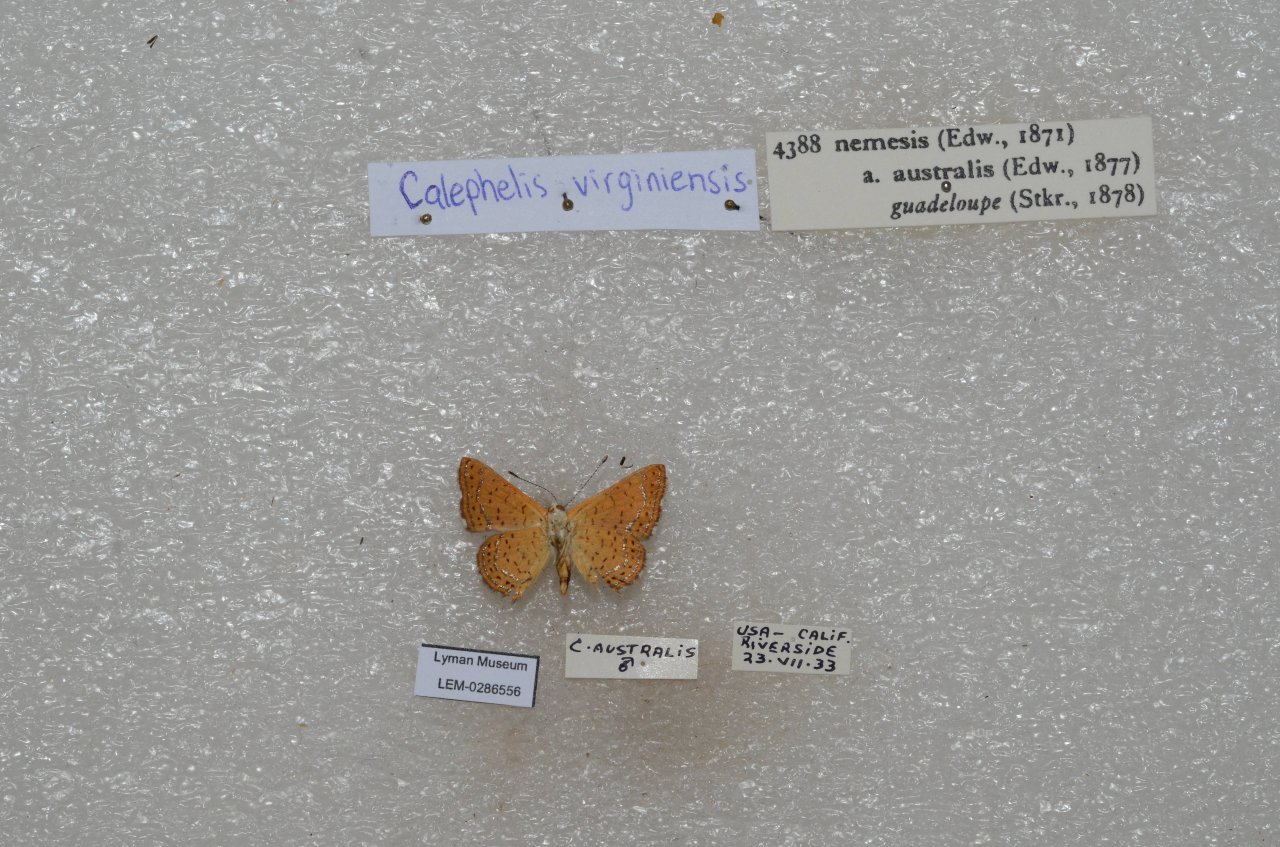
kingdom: Animalia
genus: Calephelis
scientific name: Calephelis nemesis
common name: Fatal Metalmark
